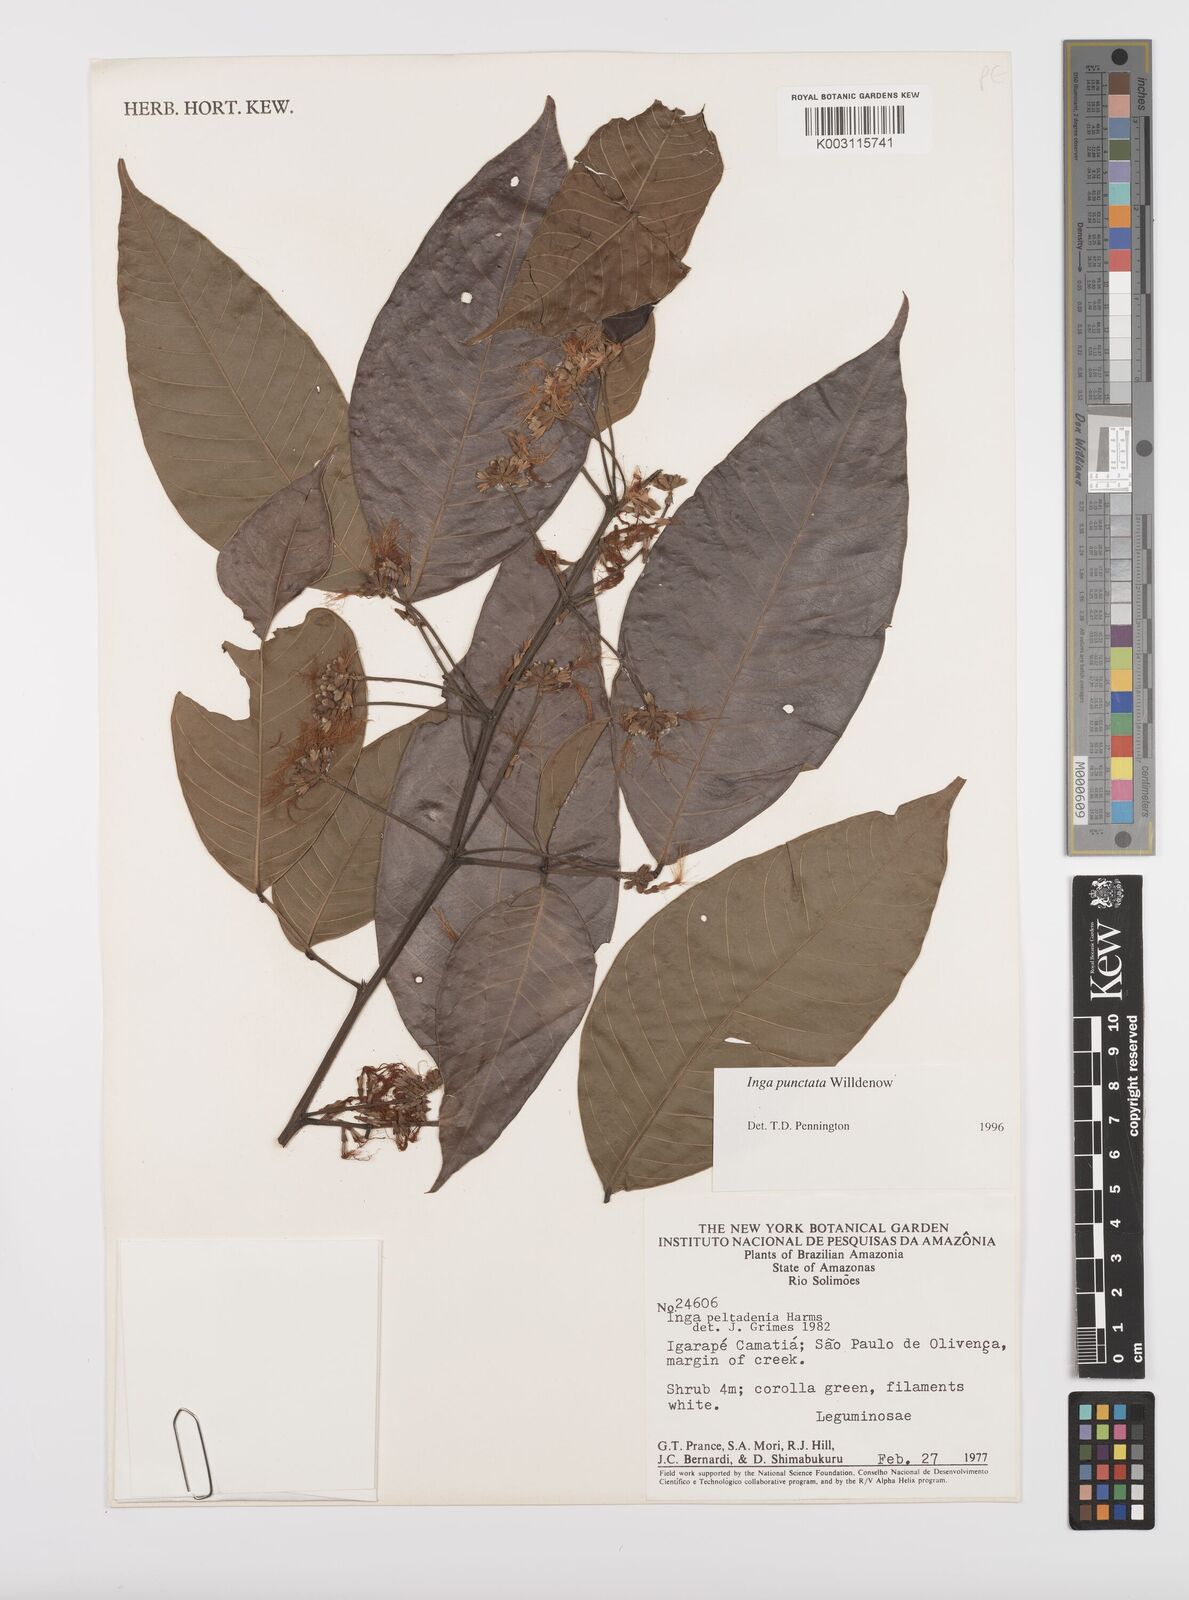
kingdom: Plantae
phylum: Tracheophyta
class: Magnoliopsida
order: Fabales
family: Fabaceae
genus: Inga
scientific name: Inga punctata
